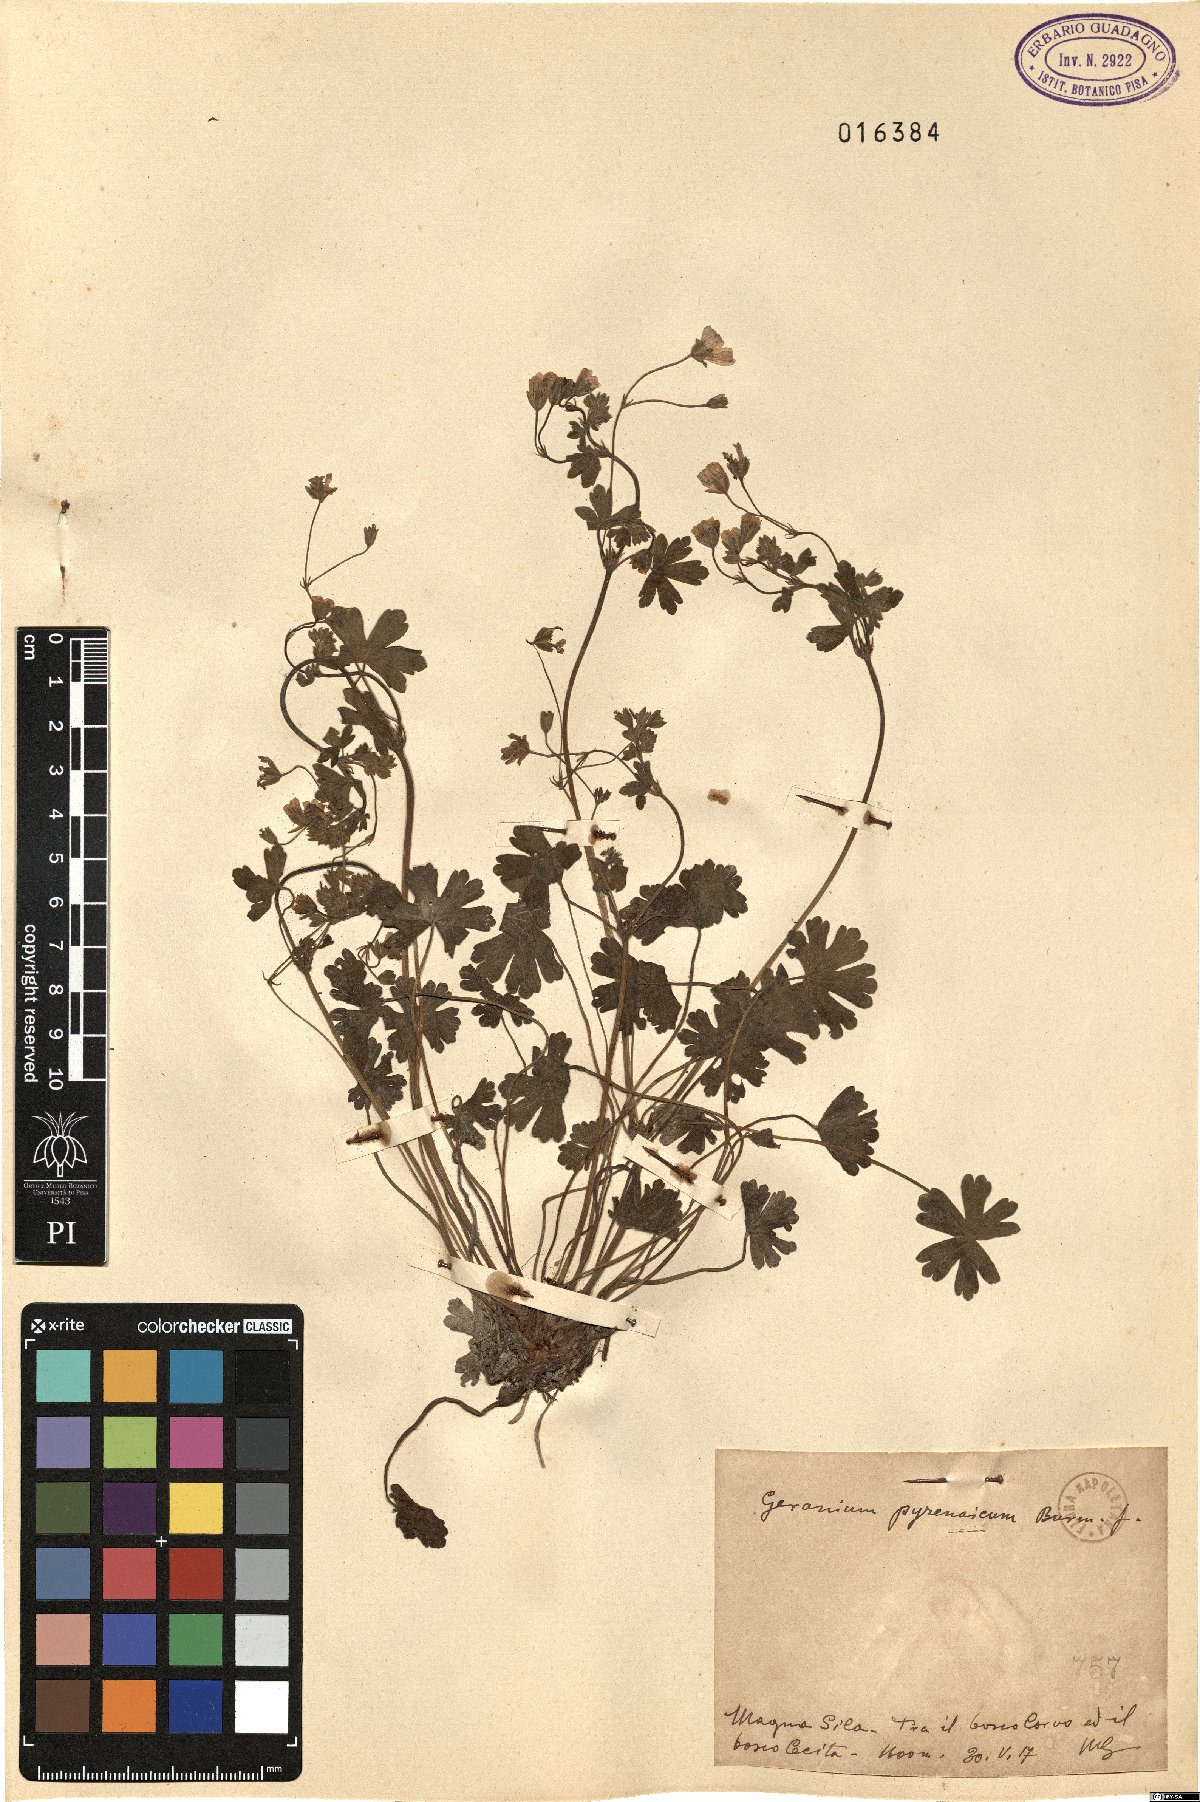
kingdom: Plantae
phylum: Tracheophyta
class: Magnoliopsida
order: Geraniales
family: Geraniaceae
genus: Geranium
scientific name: Geranium pyrenaicum
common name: Hedgerow crane's-bill
